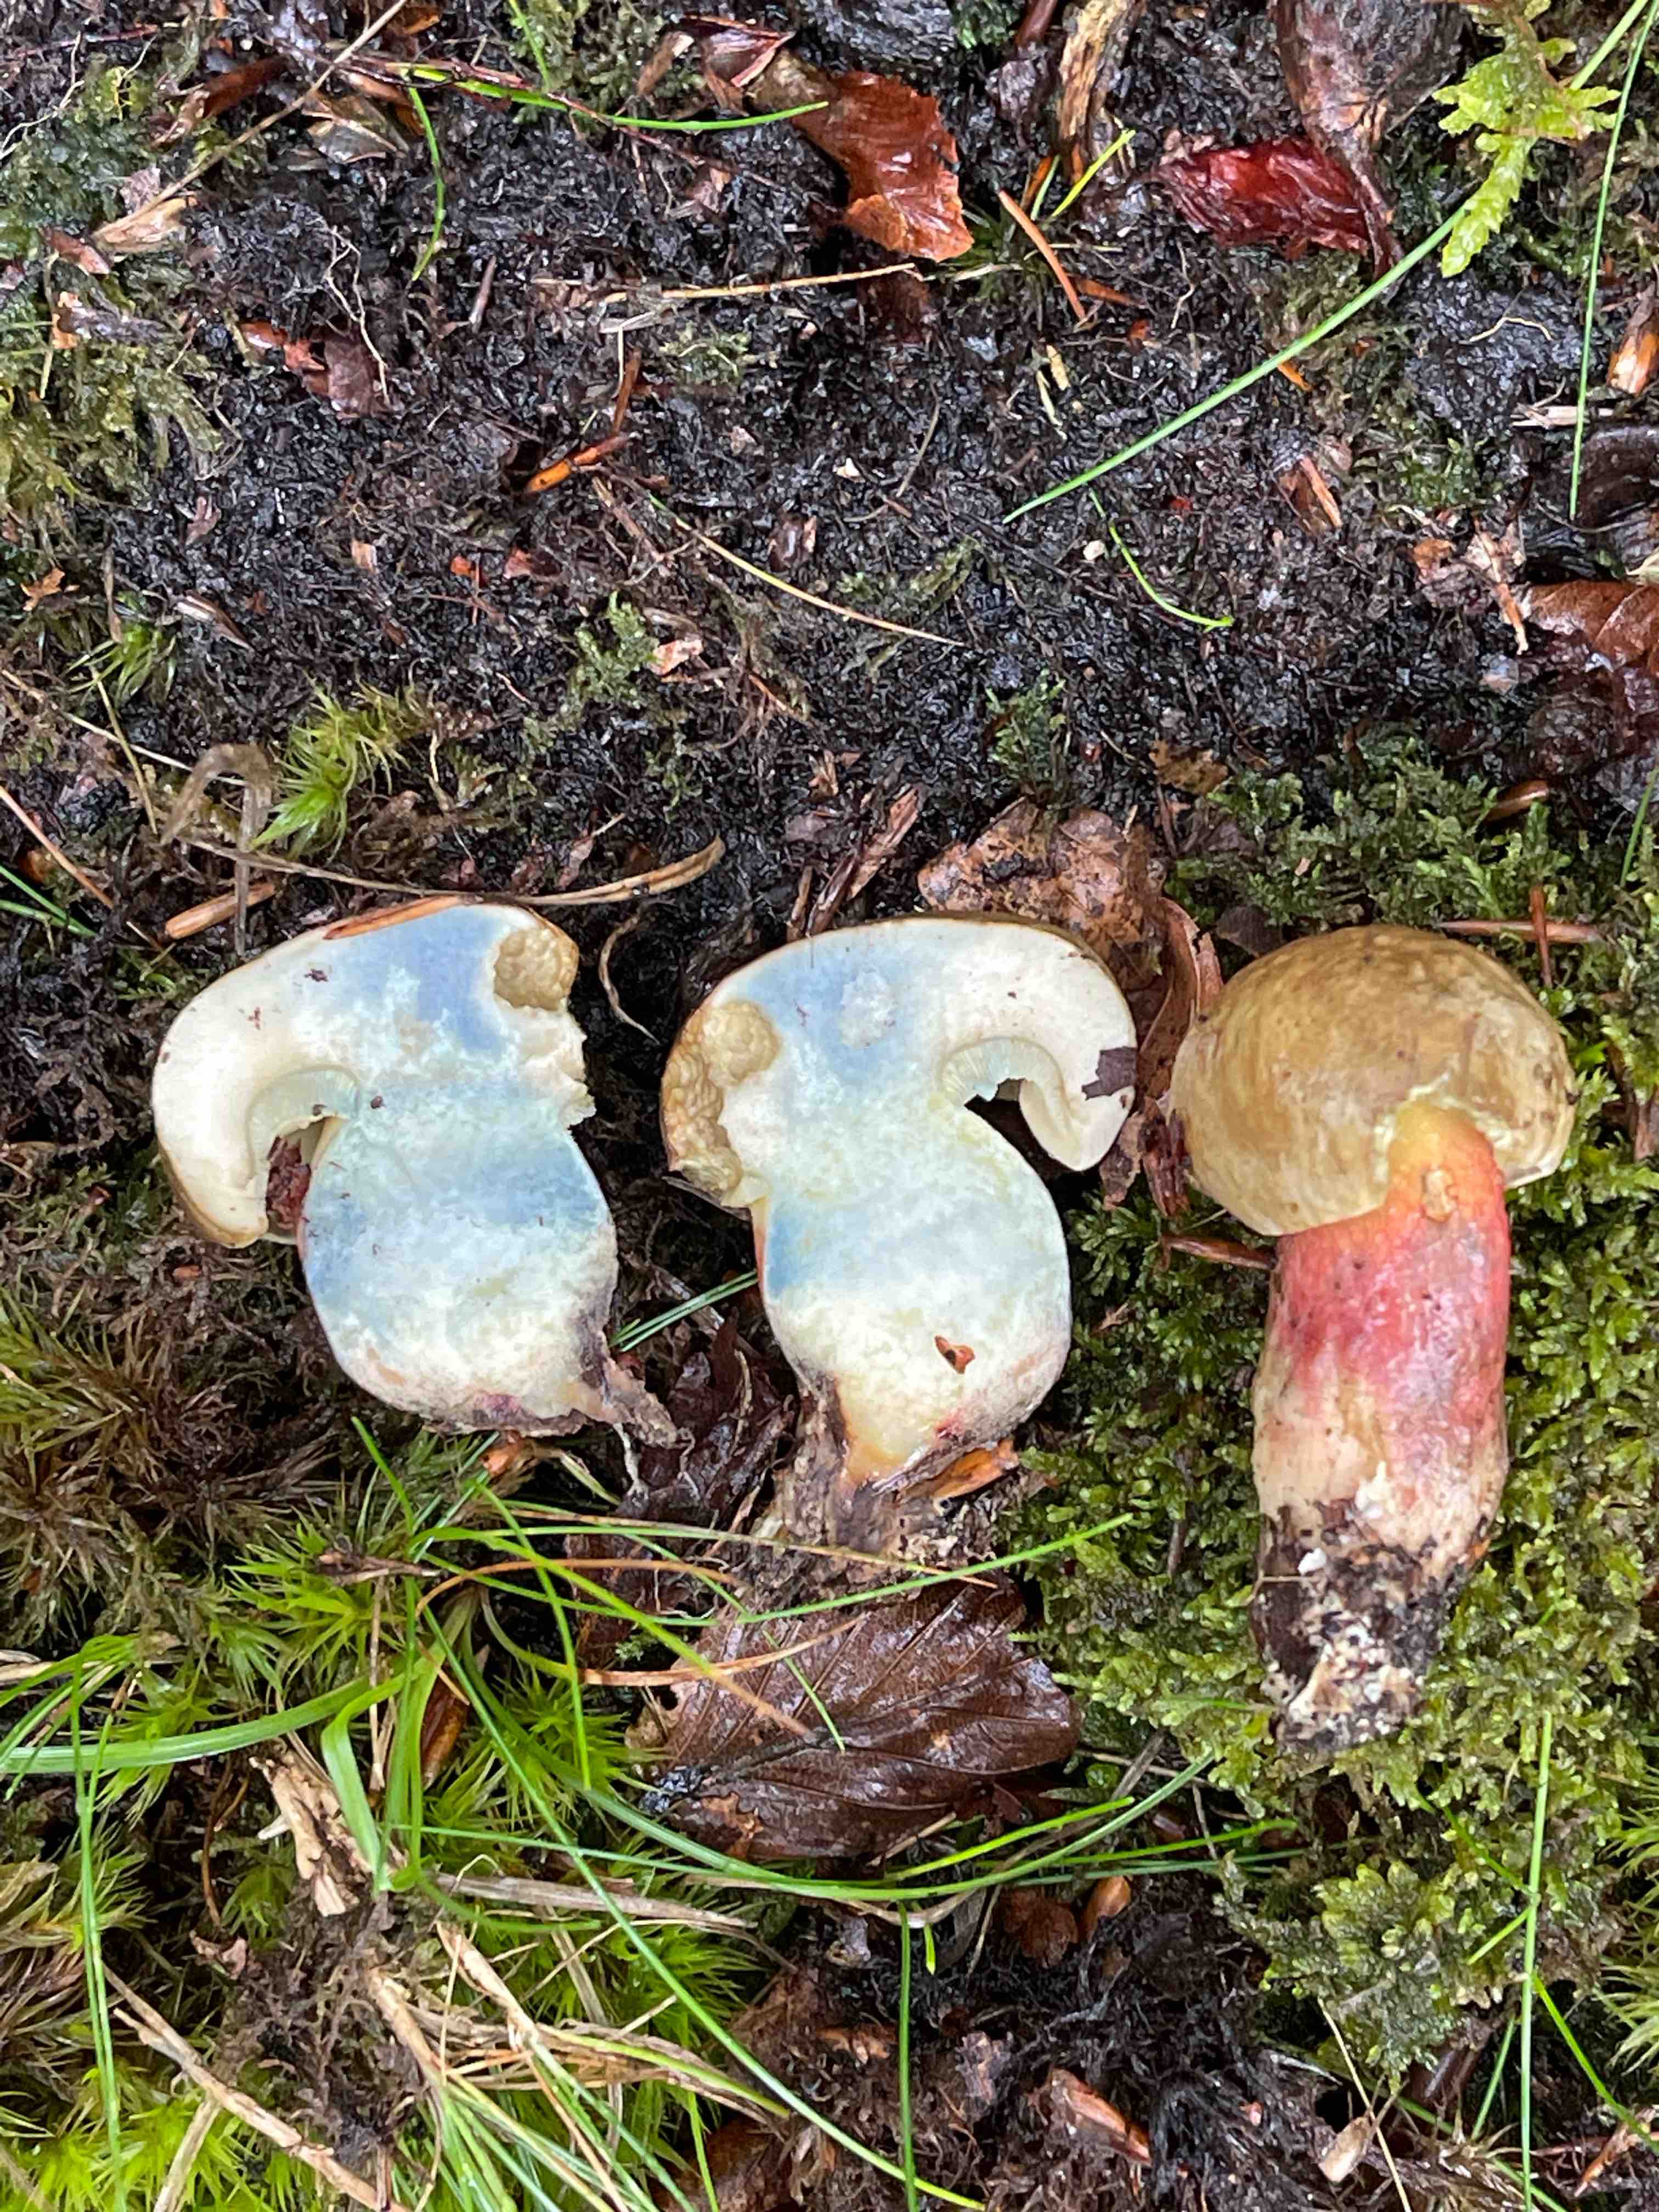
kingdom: Fungi
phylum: Basidiomycota
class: Agaricomycetes
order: Boletales
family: Boletaceae
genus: Caloboletus
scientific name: Caloboletus calopus
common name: skønfodet rørhat
